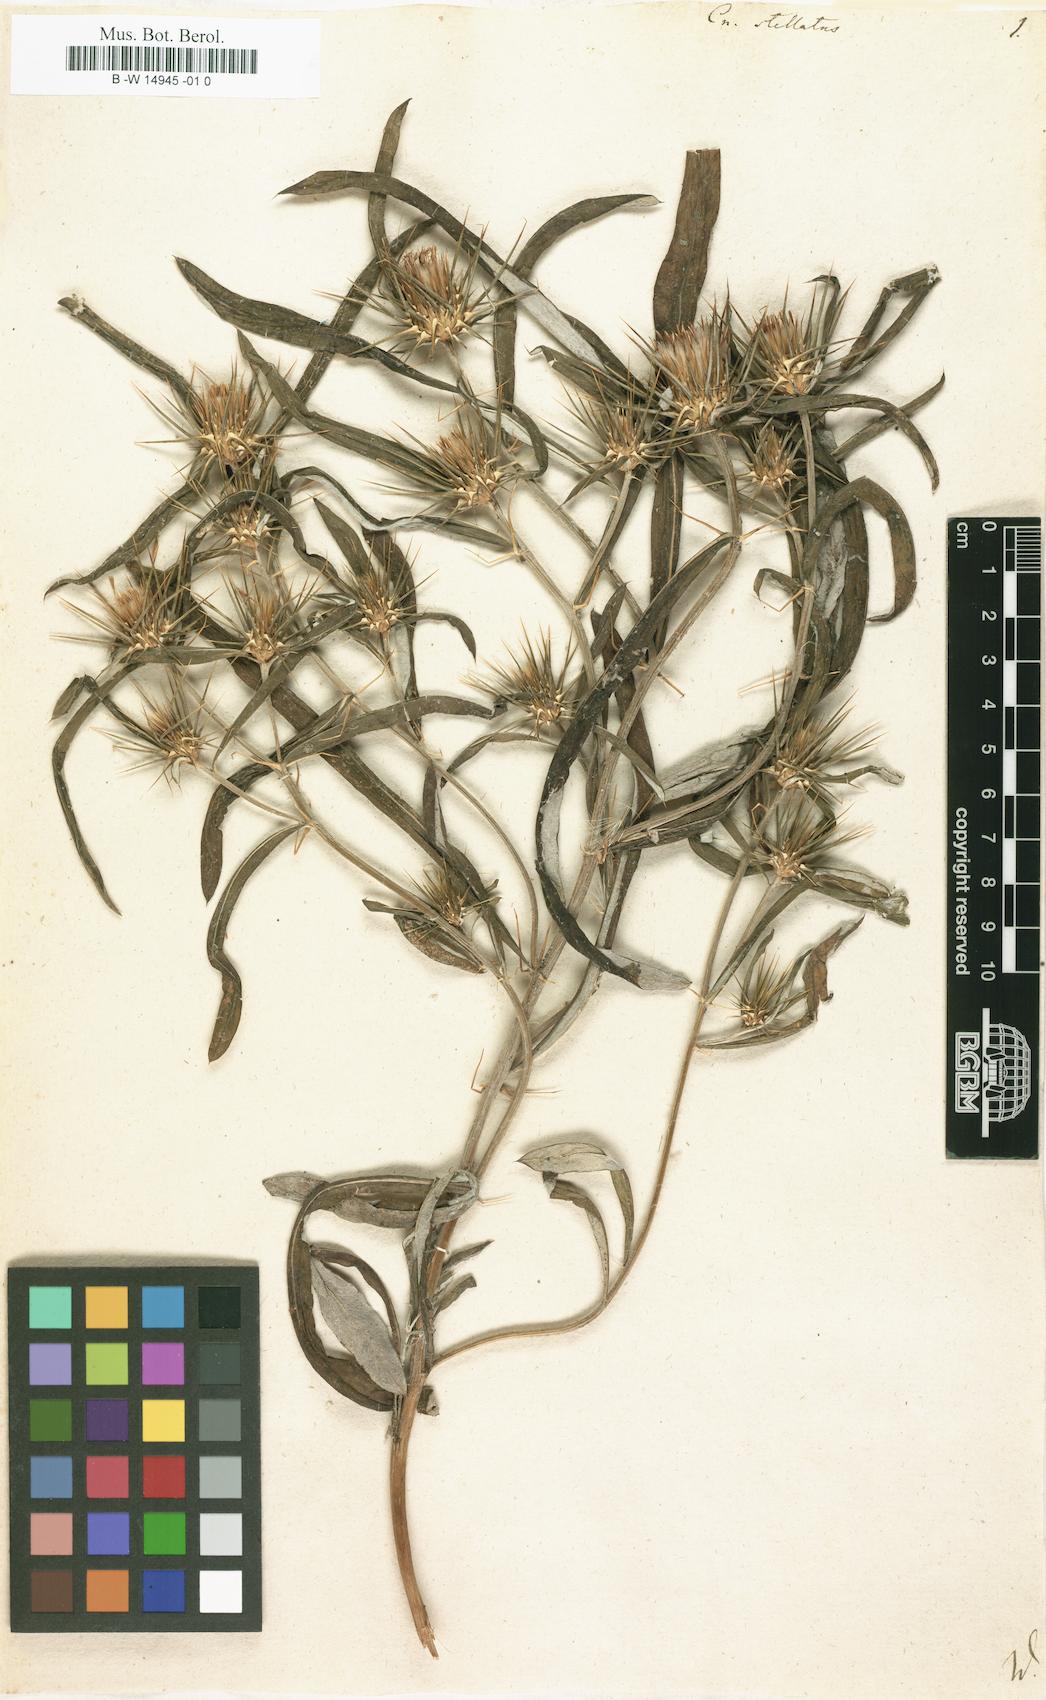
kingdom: Plantae
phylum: Tracheophyta
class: Magnoliopsida
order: Asterales
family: Asteraceae
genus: Ptilostemon
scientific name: Ptilostemon stellatus
